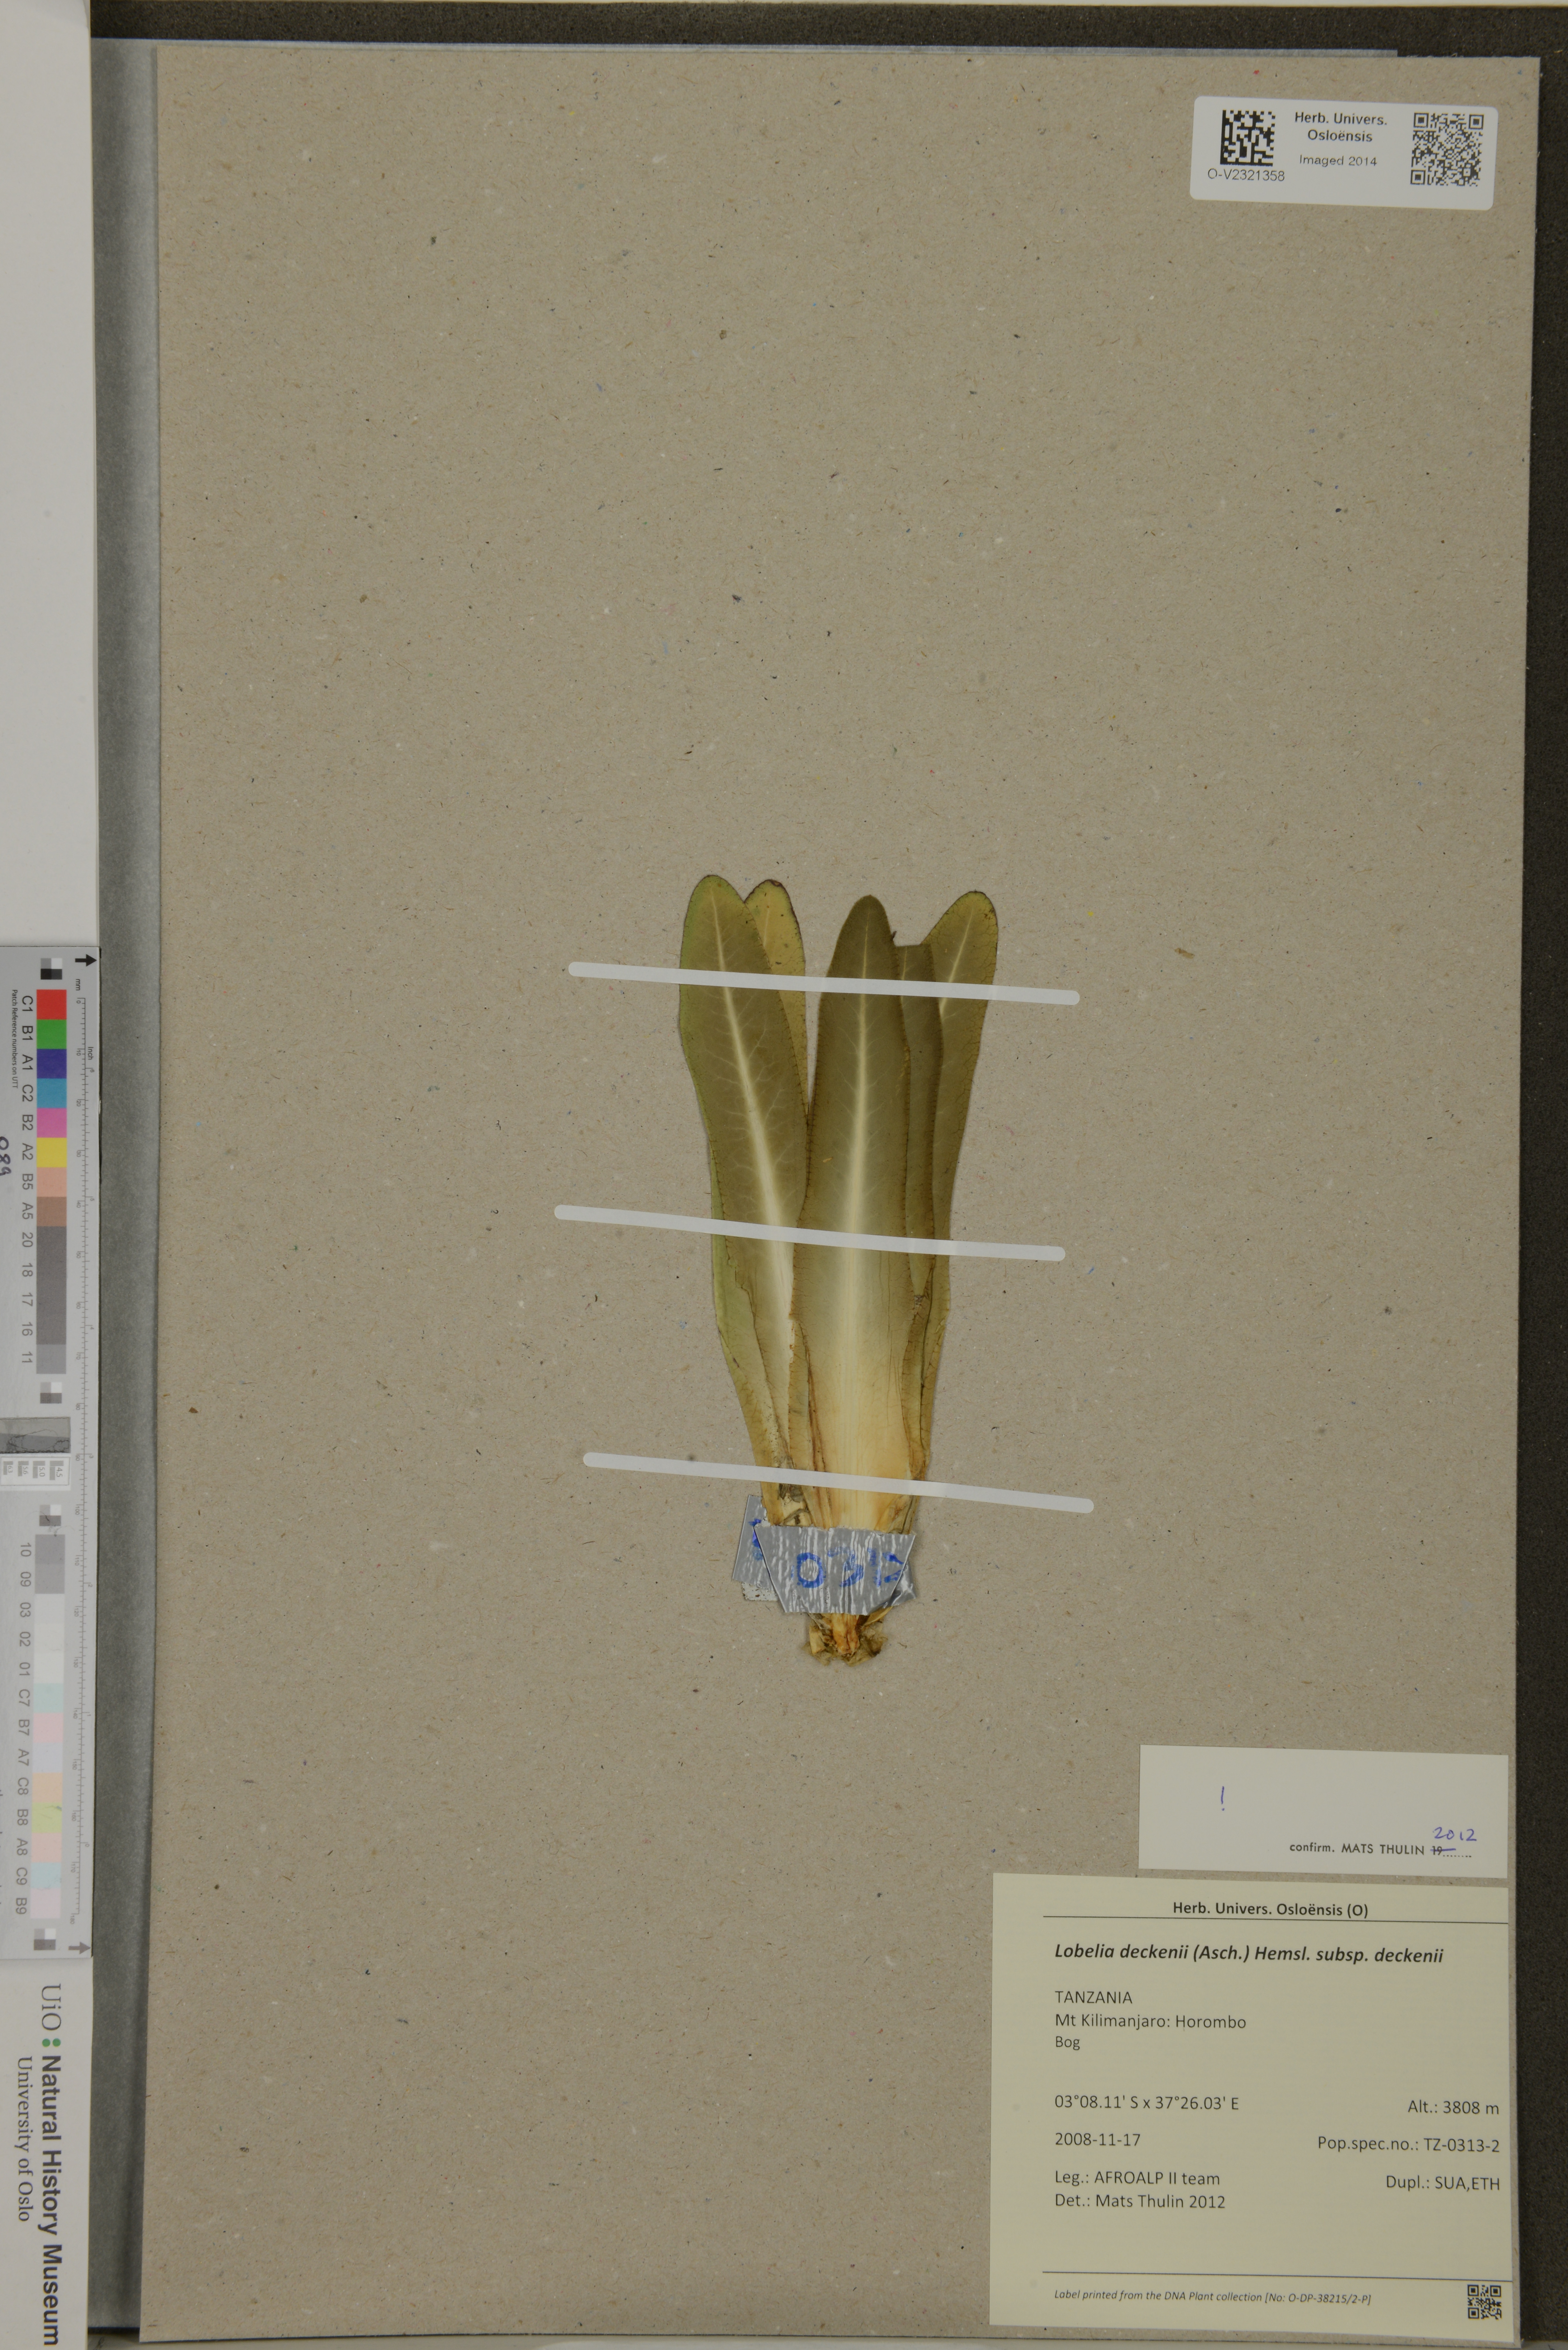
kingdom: Plantae
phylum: Tracheophyta
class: Magnoliopsida
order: Asterales
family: Campanulaceae
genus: Lobelia
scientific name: Lobelia deckenii
